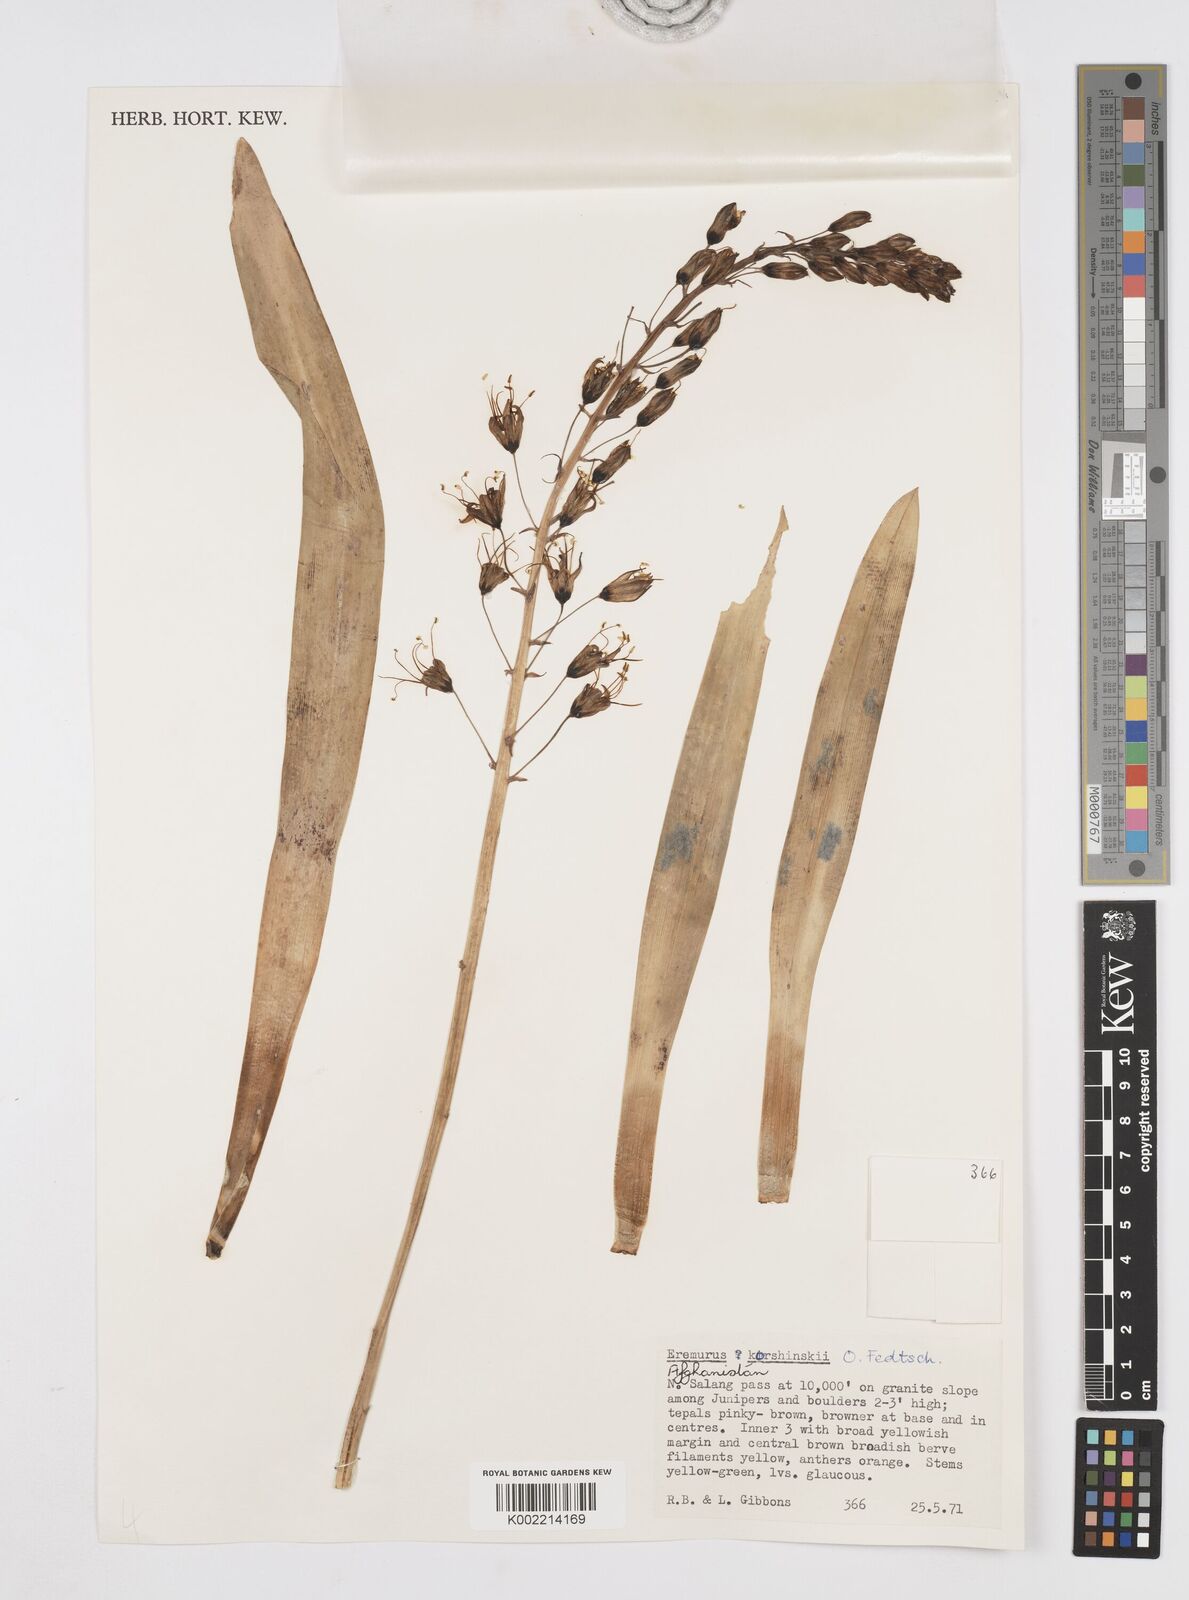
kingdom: Plantae
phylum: Tracheophyta
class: Liliopsida
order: Asparagales
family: Asphodelaceae
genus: Eremurus
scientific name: Eremurus korshinskyi
